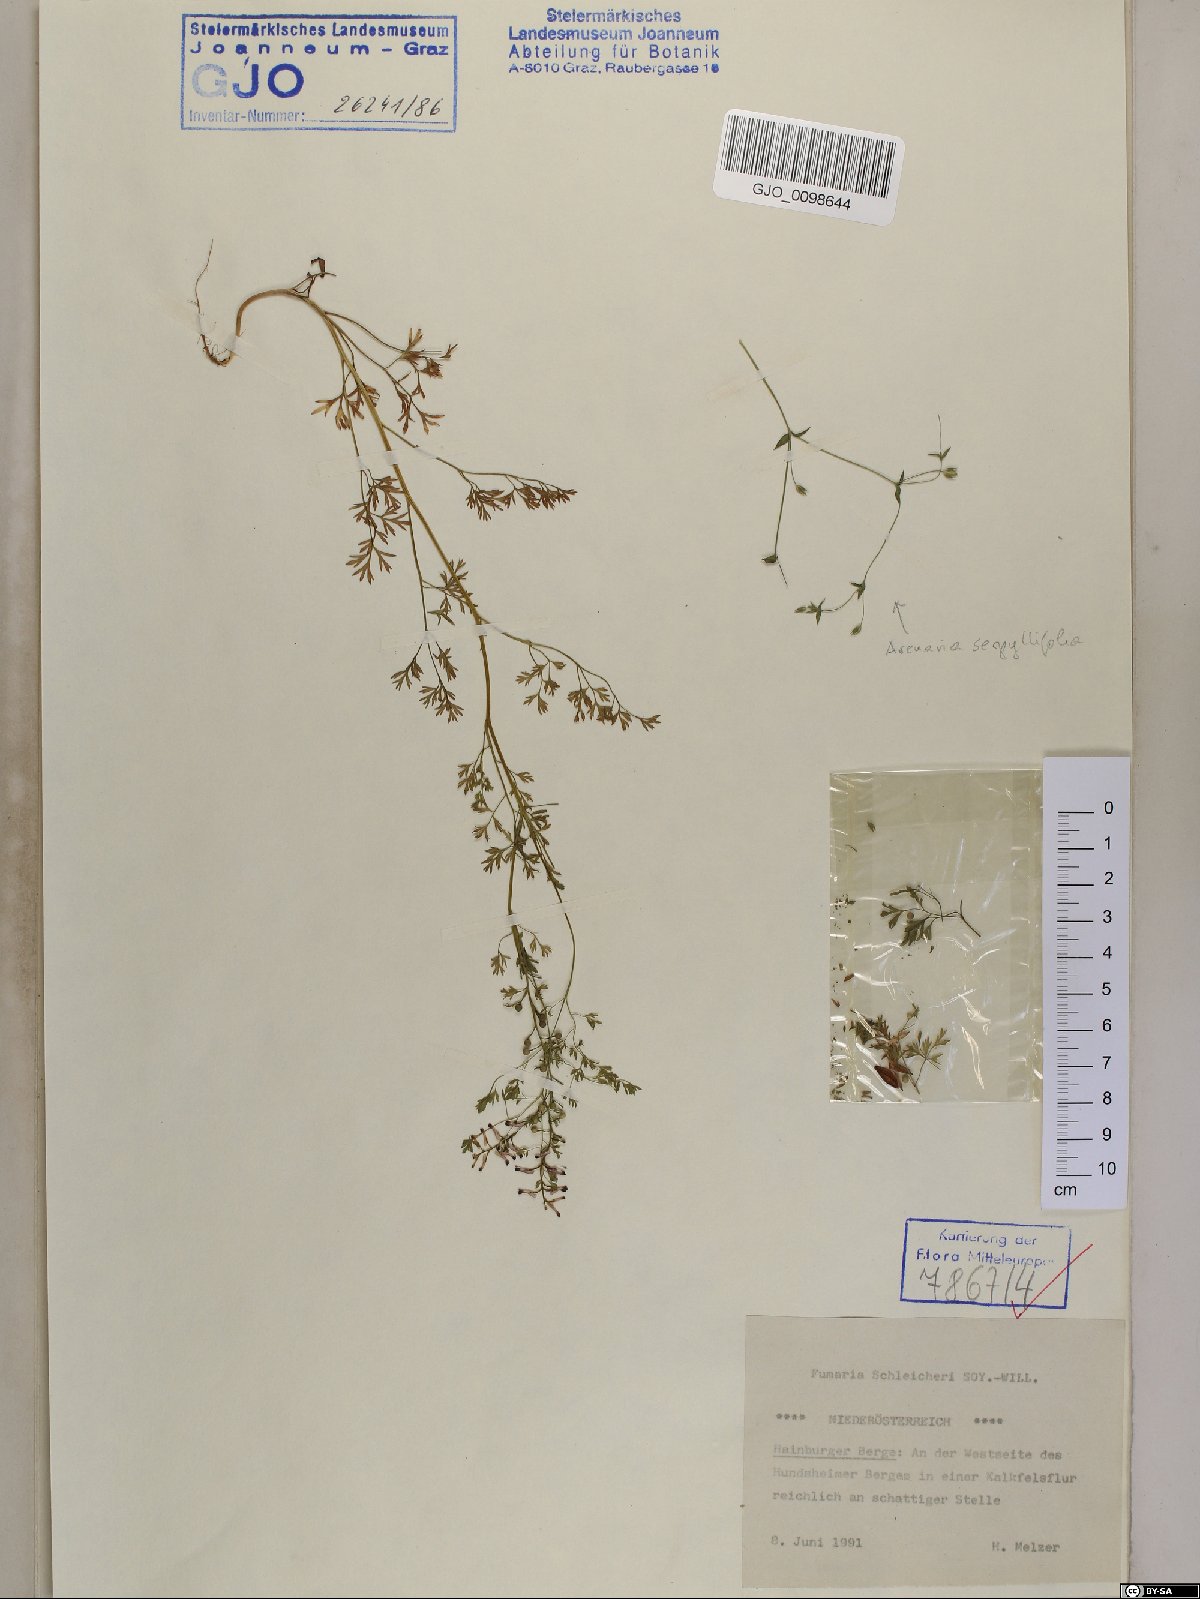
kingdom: Plantae
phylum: Tracheophyta
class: Magnoliopsida
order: Ranunculales
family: Papaveraceae
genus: Fumaria
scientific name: Fumaria schleicheri
